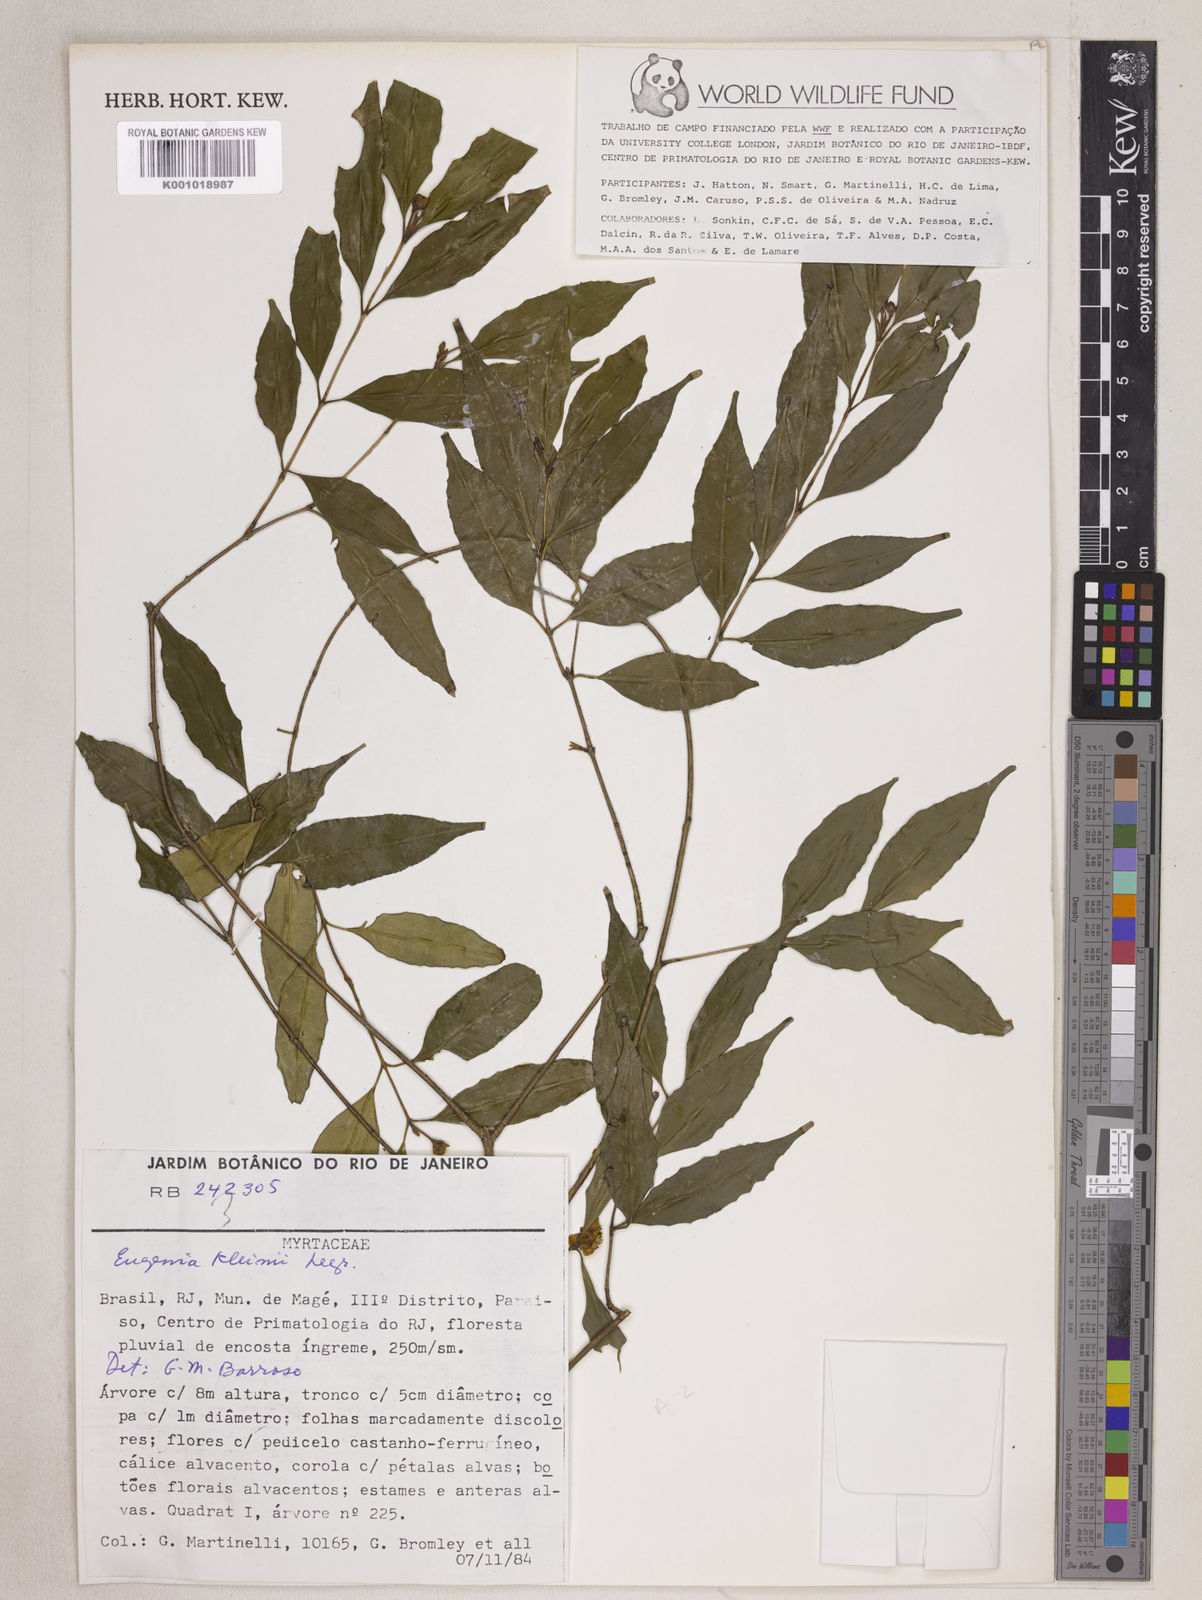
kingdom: Plantae
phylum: Tracheophyta
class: Magnoliopsida
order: Myrtales
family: Myrtaceae
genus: Eugenia
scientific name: Eugenia kleinii
